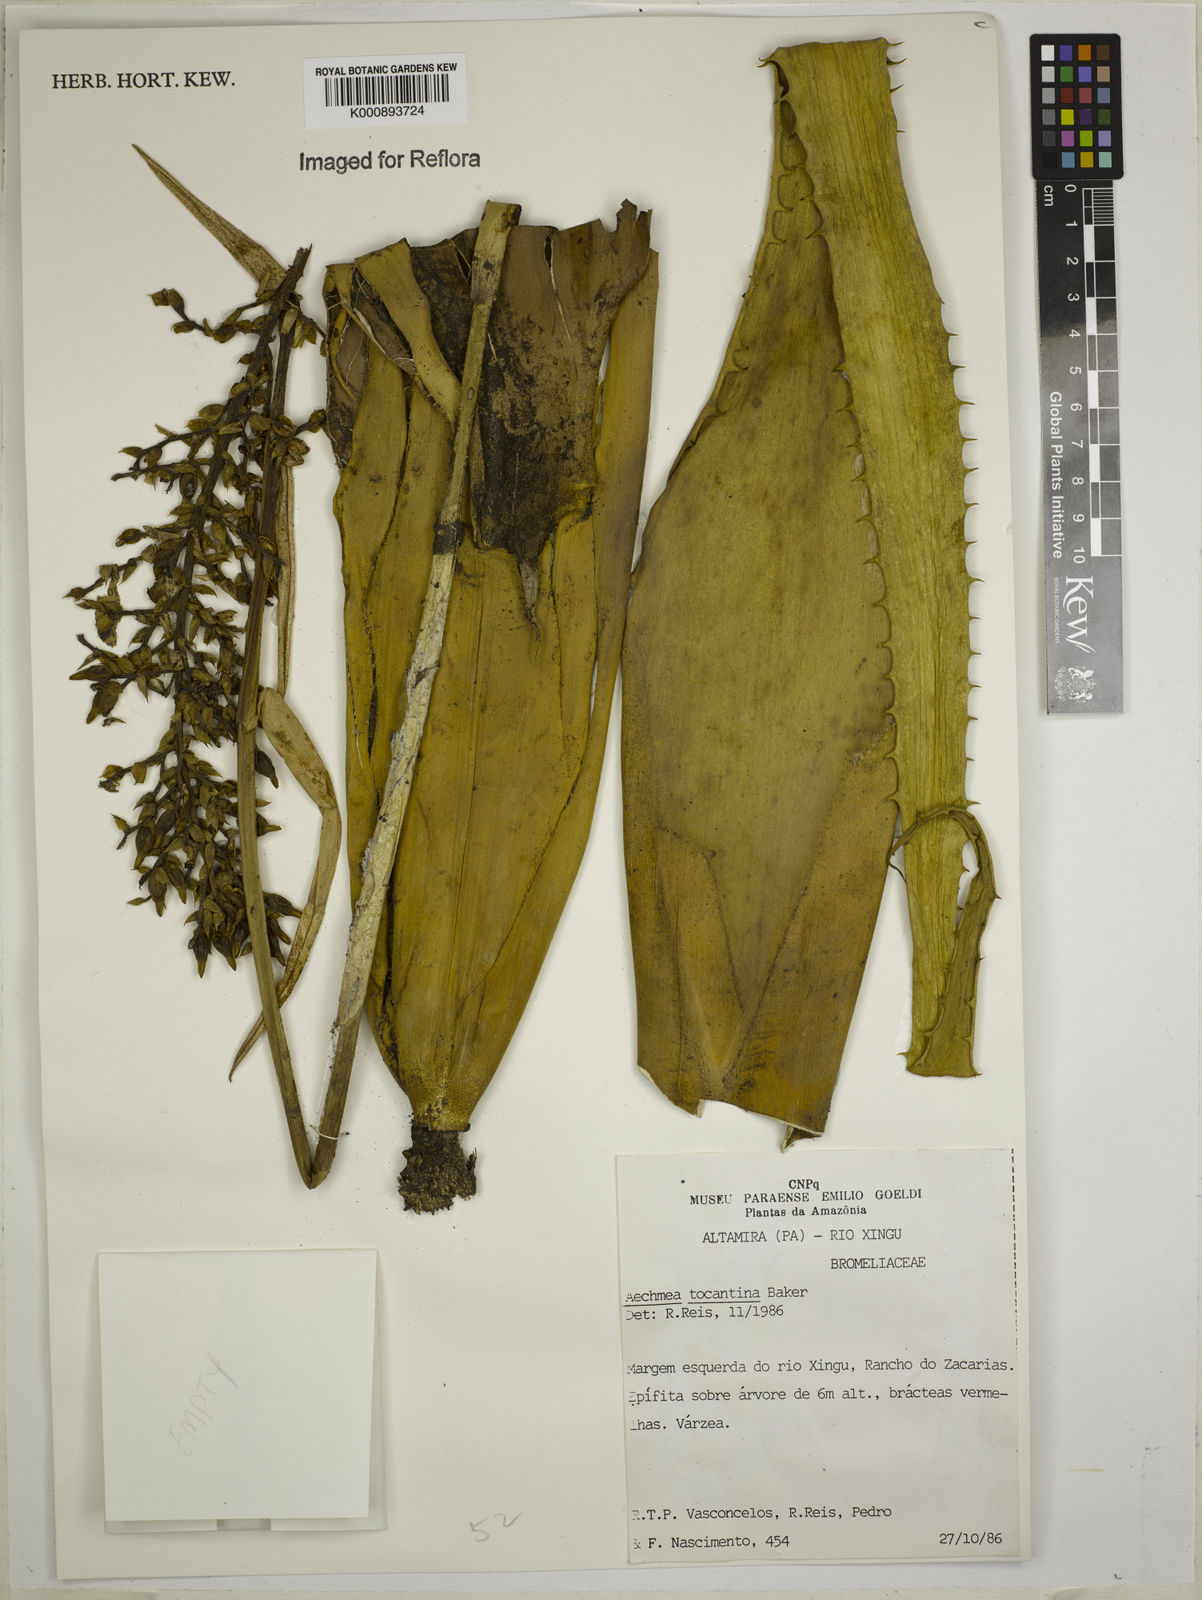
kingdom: Plantae
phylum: Tracheophyta
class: Liliopsida
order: Poales
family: Bromeliaceae
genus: Aechmea
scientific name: Aechmea tocantina
